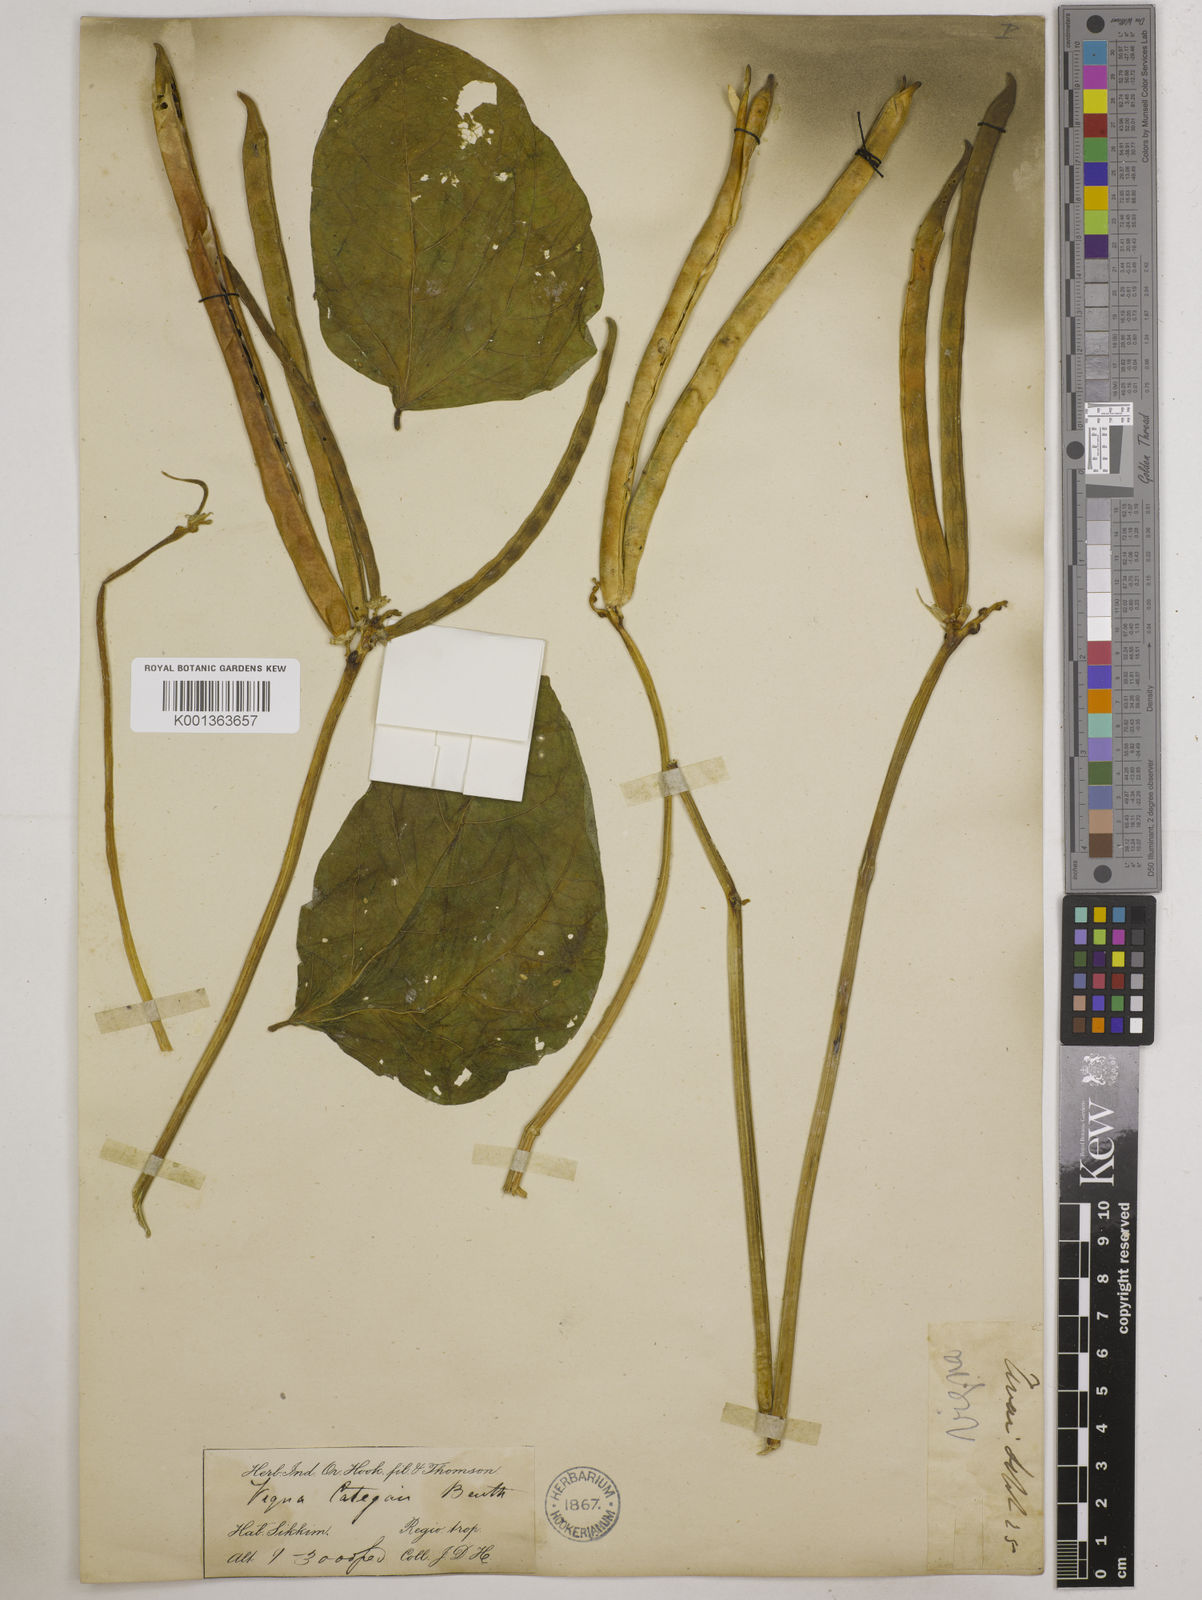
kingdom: Plantae
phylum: Tracheophyta
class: Magnoliopsida
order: Fabales
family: Fabaceae
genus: Vigna
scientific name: Vigna unguiculata
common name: Cowpea
